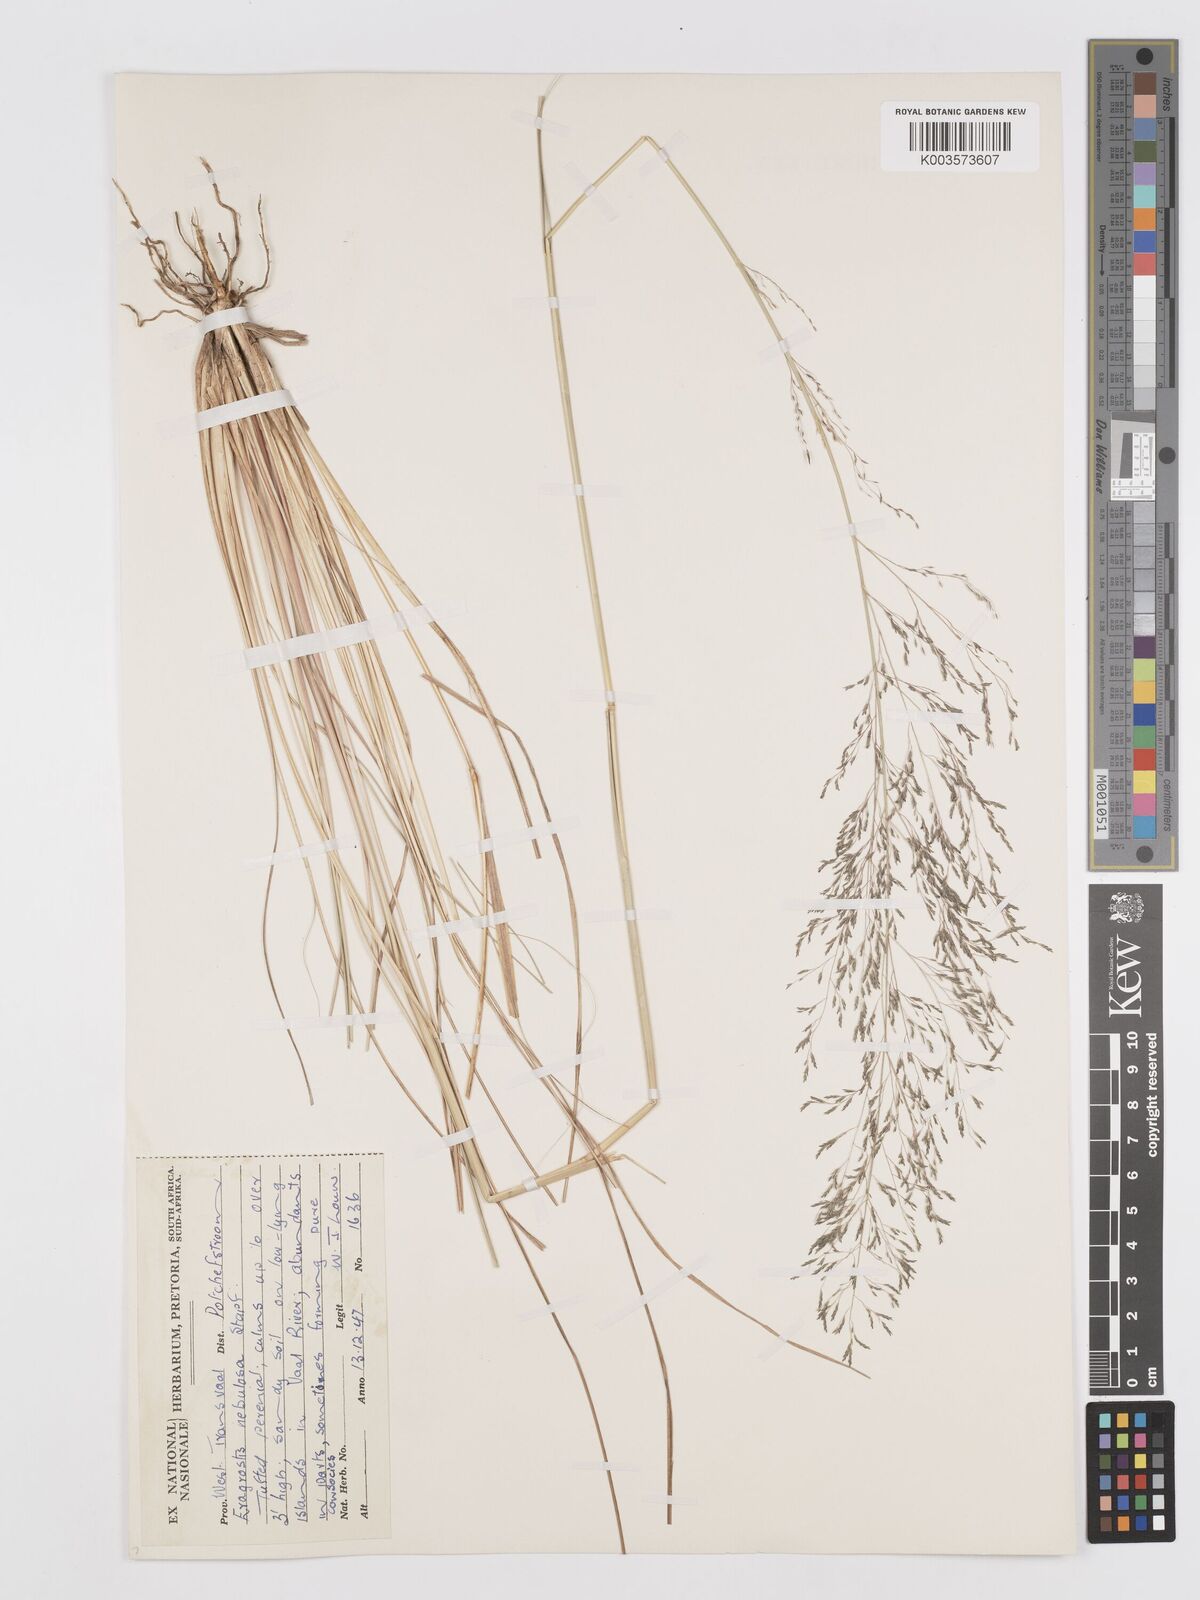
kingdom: Plantae
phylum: Tracheophyta
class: Liliopsida
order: Poales
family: Poaceae
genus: Eragrostis
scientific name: Eragrostis planiculmis
